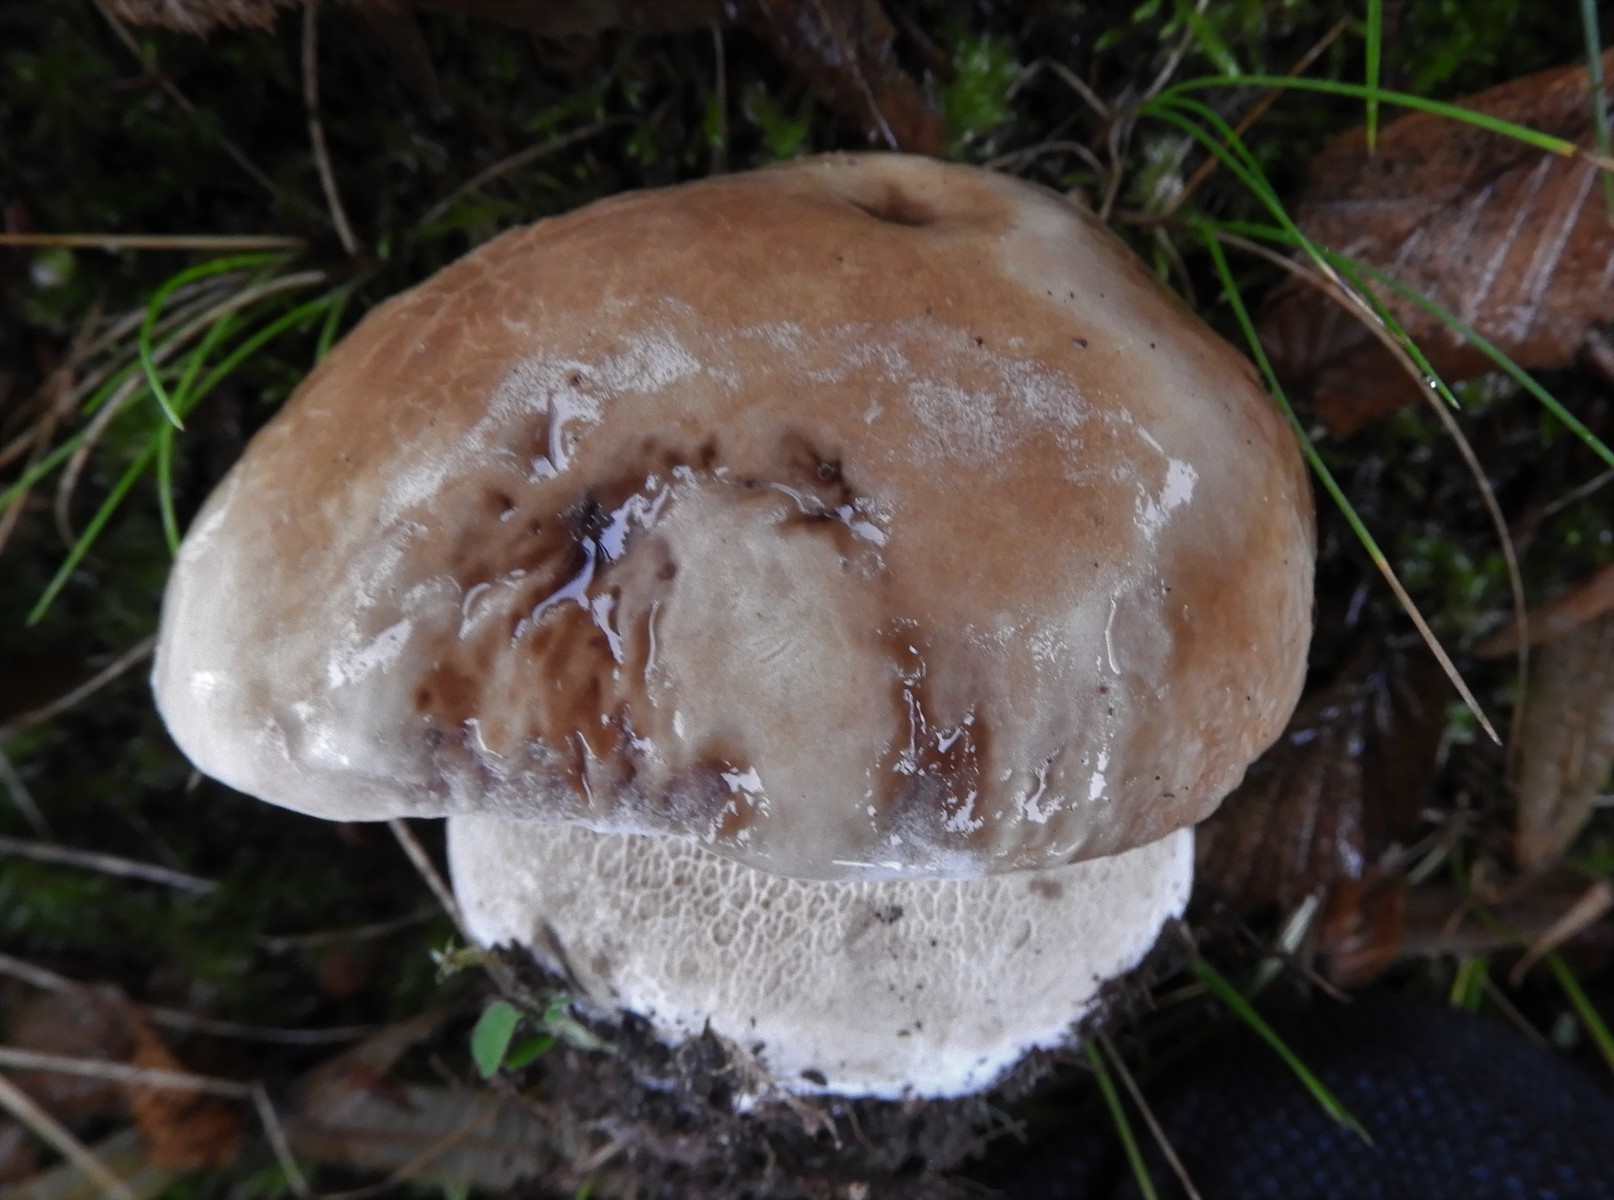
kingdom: Fungi
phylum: Basidiomycota
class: Agaricomycetes
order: Boletales
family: Boletaceae
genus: Boletus
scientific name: Boletus reticulatus
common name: sommer-rørhat
